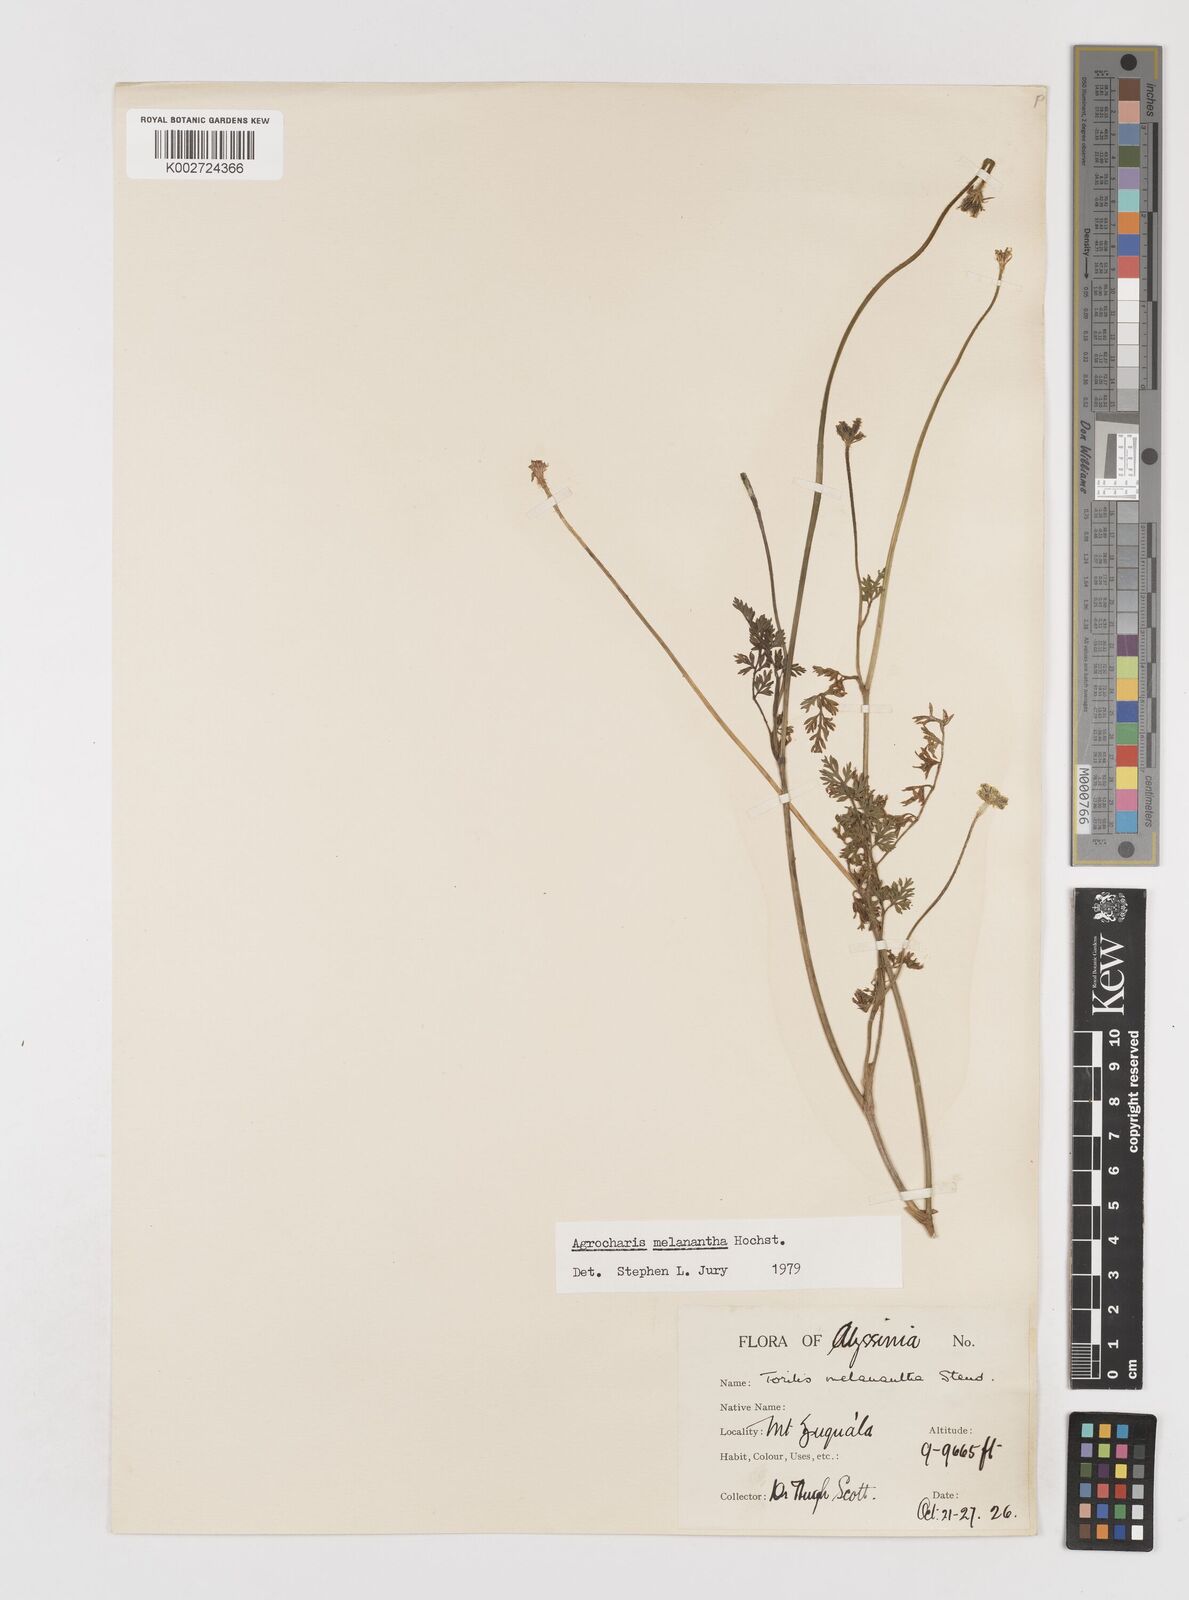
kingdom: Plantae
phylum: Tracheophyta
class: Magnoliopsida
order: Apiales
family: Apiaceae
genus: Daucus
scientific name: Daucus melananthus
